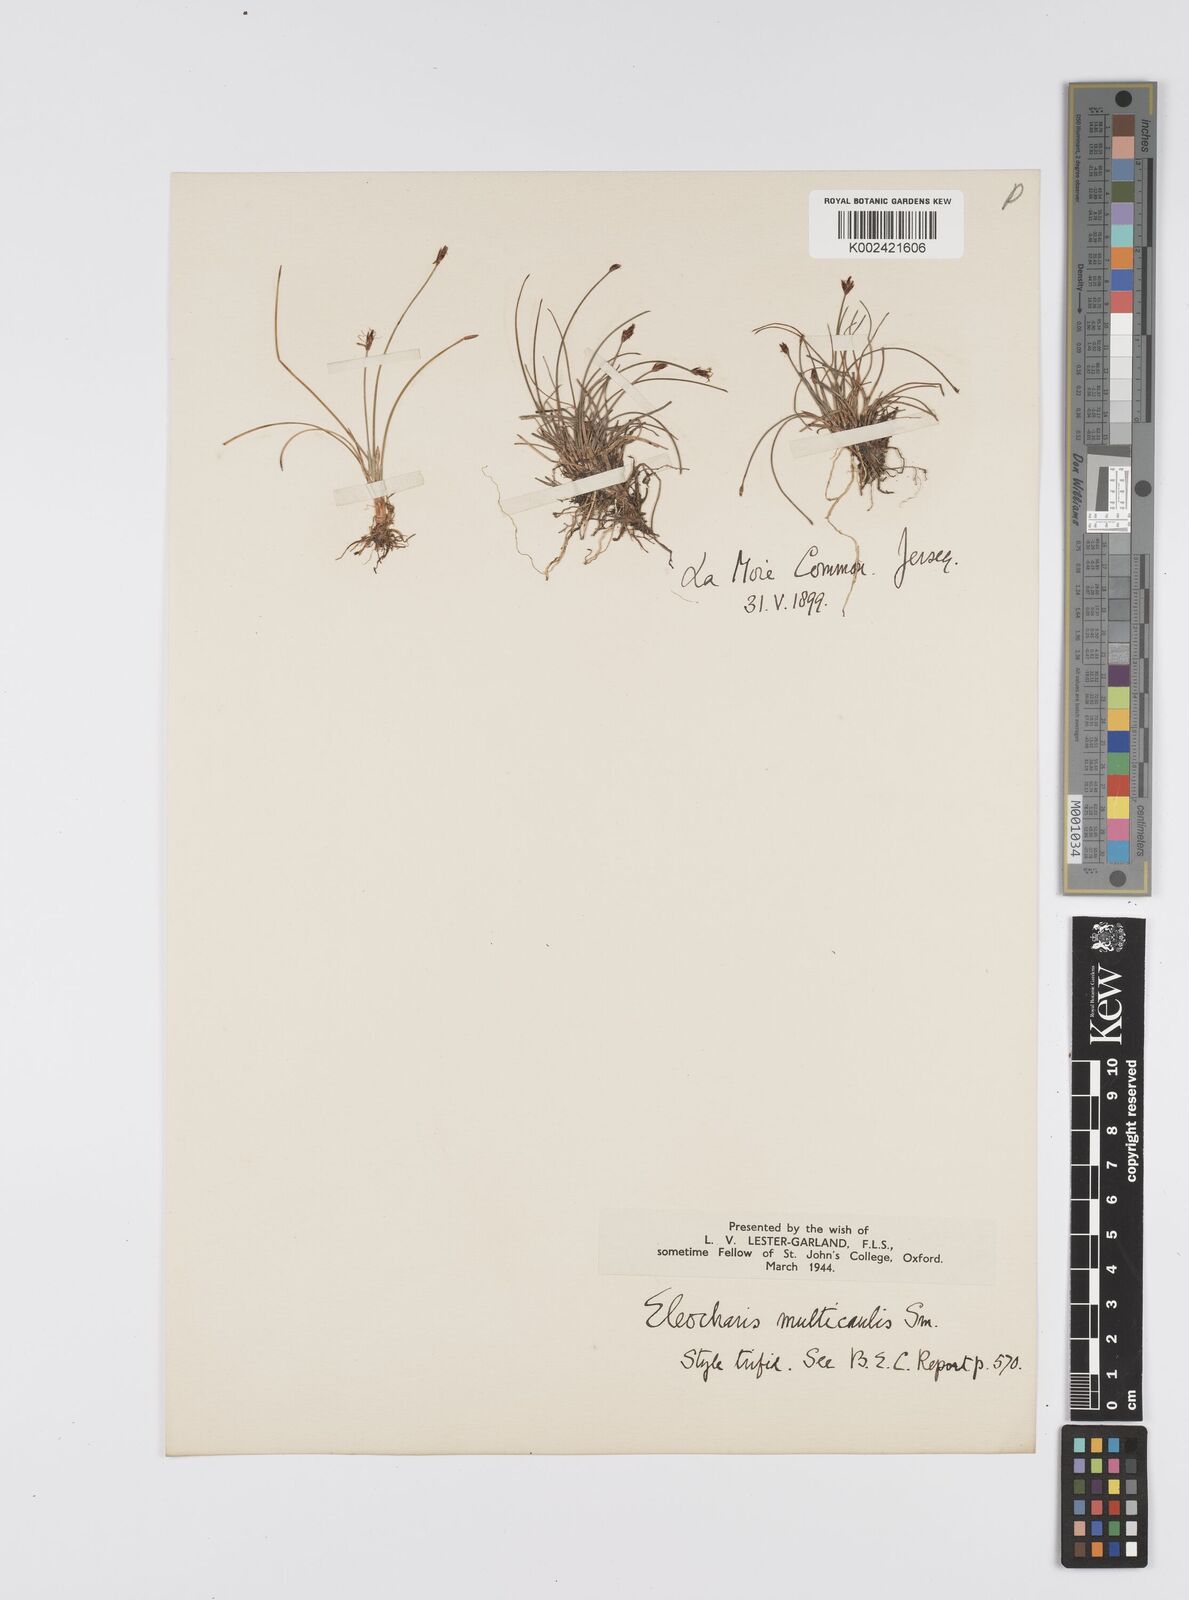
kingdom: Plantae
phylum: Tracheophyta
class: Liliopsida
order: Poales
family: Cyperaceae
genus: Eleocharis
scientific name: Eleocharis multicaulis
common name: Many-stalked spike-rush
